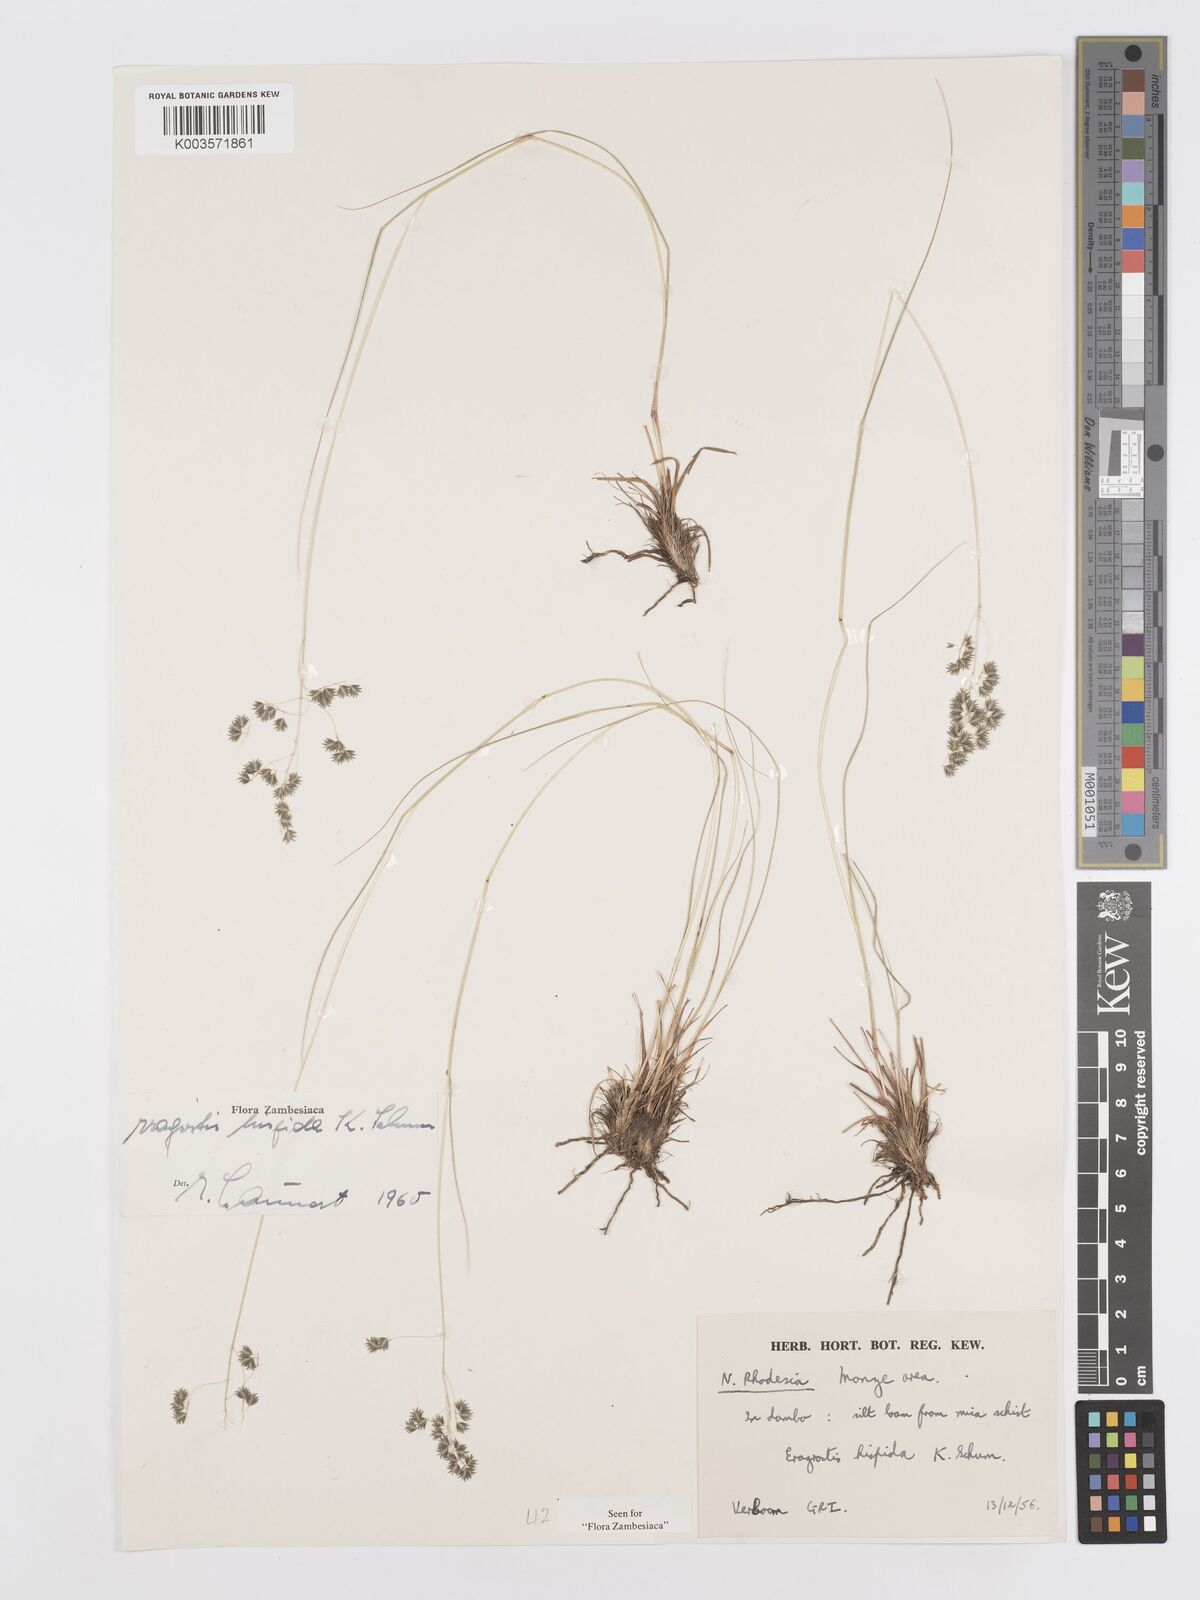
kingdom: Plantae
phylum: Tracheophyta
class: Liliopsida
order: Poales
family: Poaceae
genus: Eragrostis
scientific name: Eragrostis hispida
